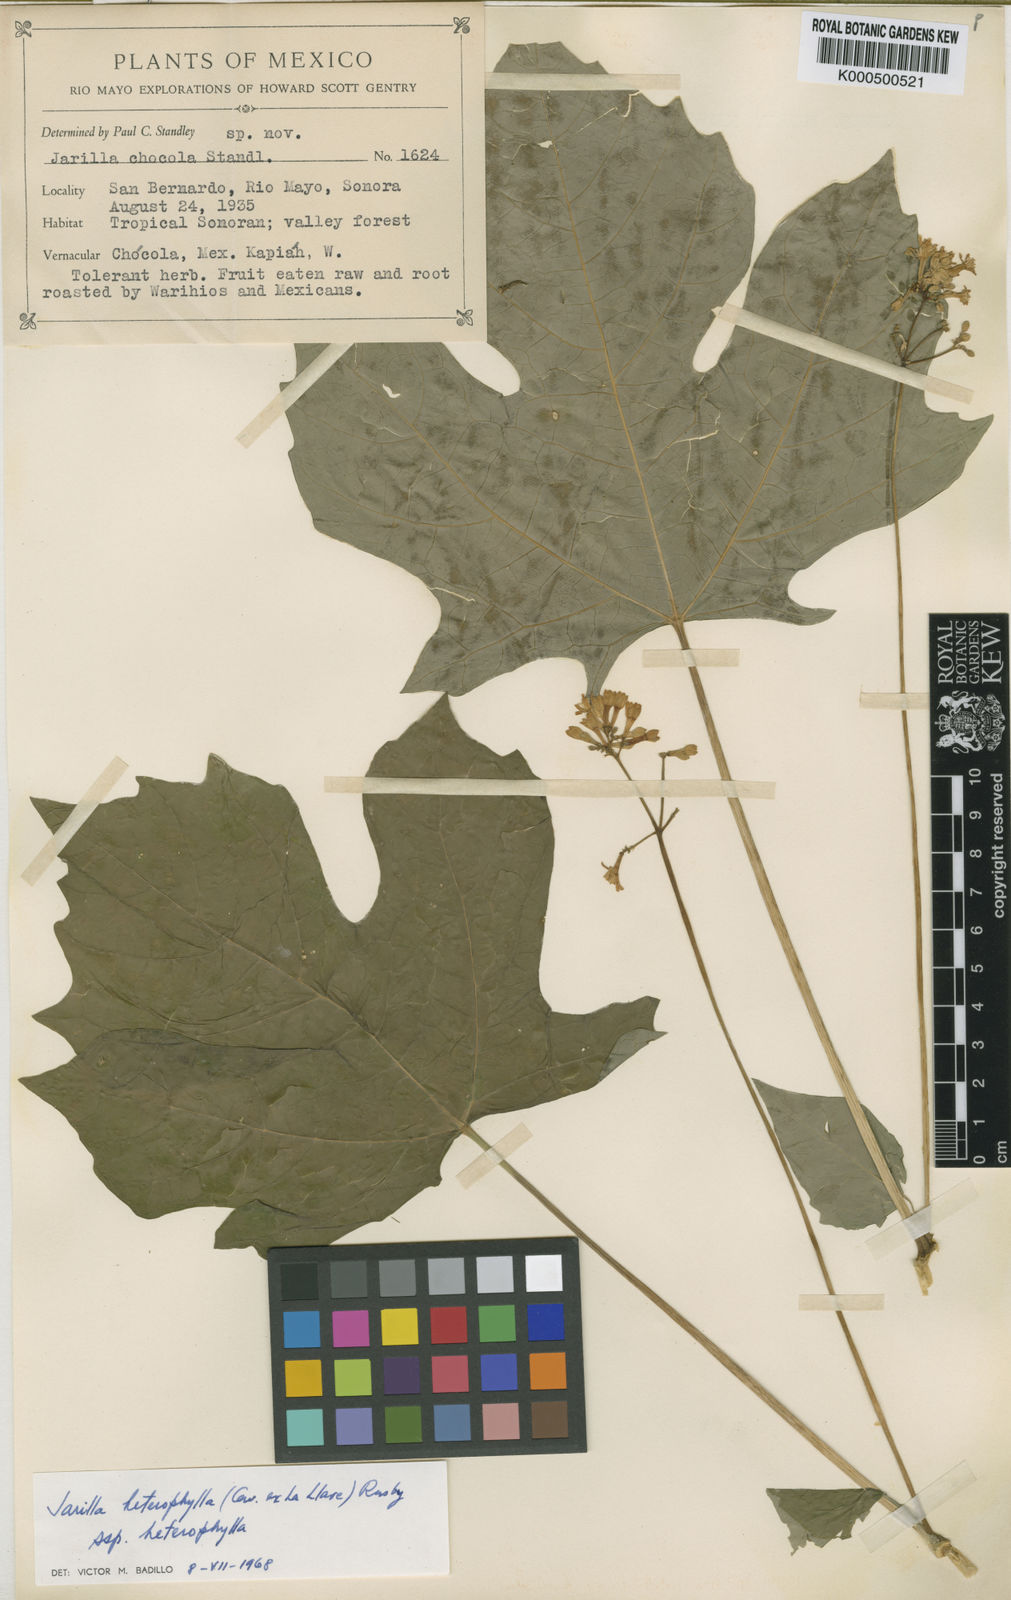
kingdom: Plantae
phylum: Tracheophyta
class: Magnoliopsida
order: Brassicales
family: Caricaceae
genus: Jarilla
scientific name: Jarilla chocola
